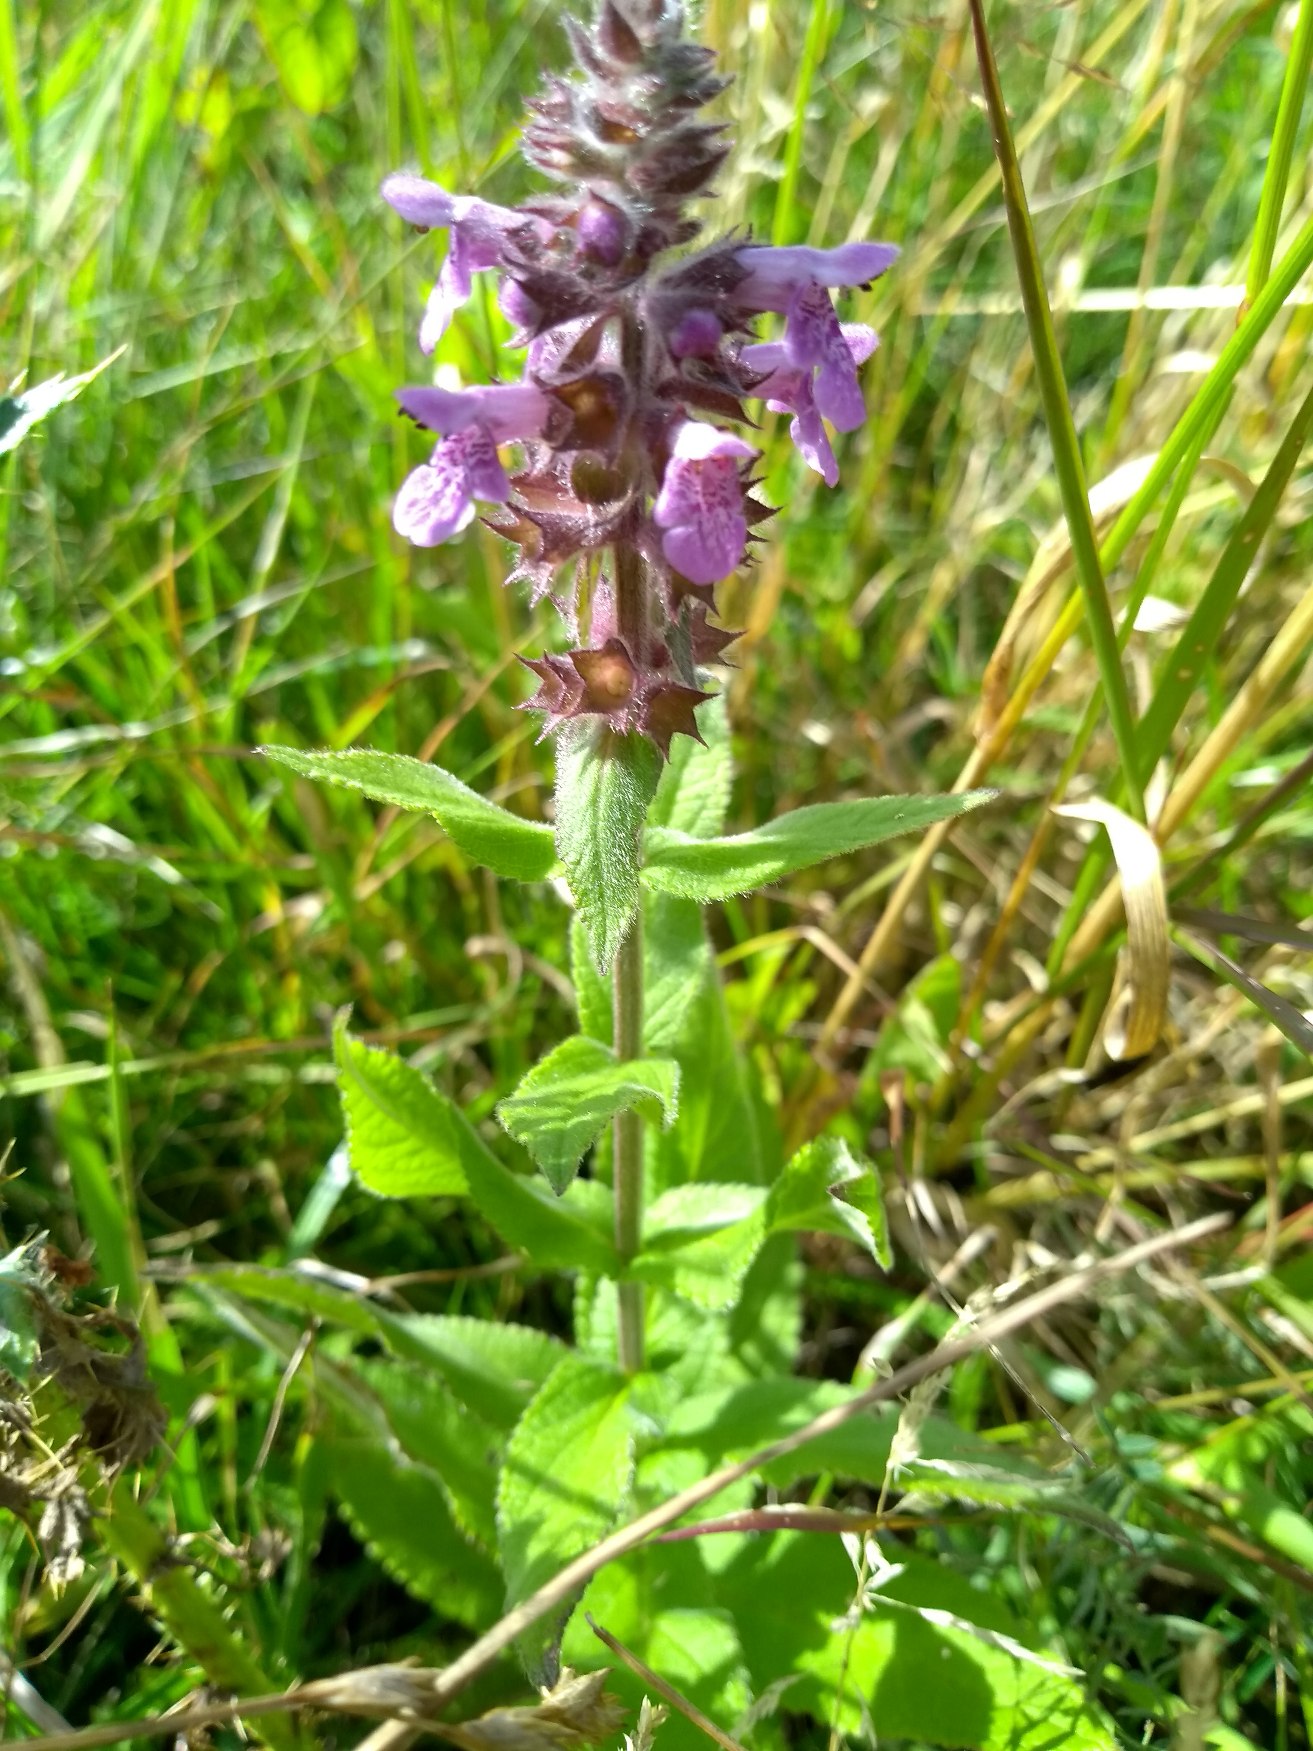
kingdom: Plantae
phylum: Tracheophyta
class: Magnoliopsida
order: Lamiales
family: Lamiaceae
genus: Stachys
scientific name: Stachys palustris
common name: Kær-galtetand
